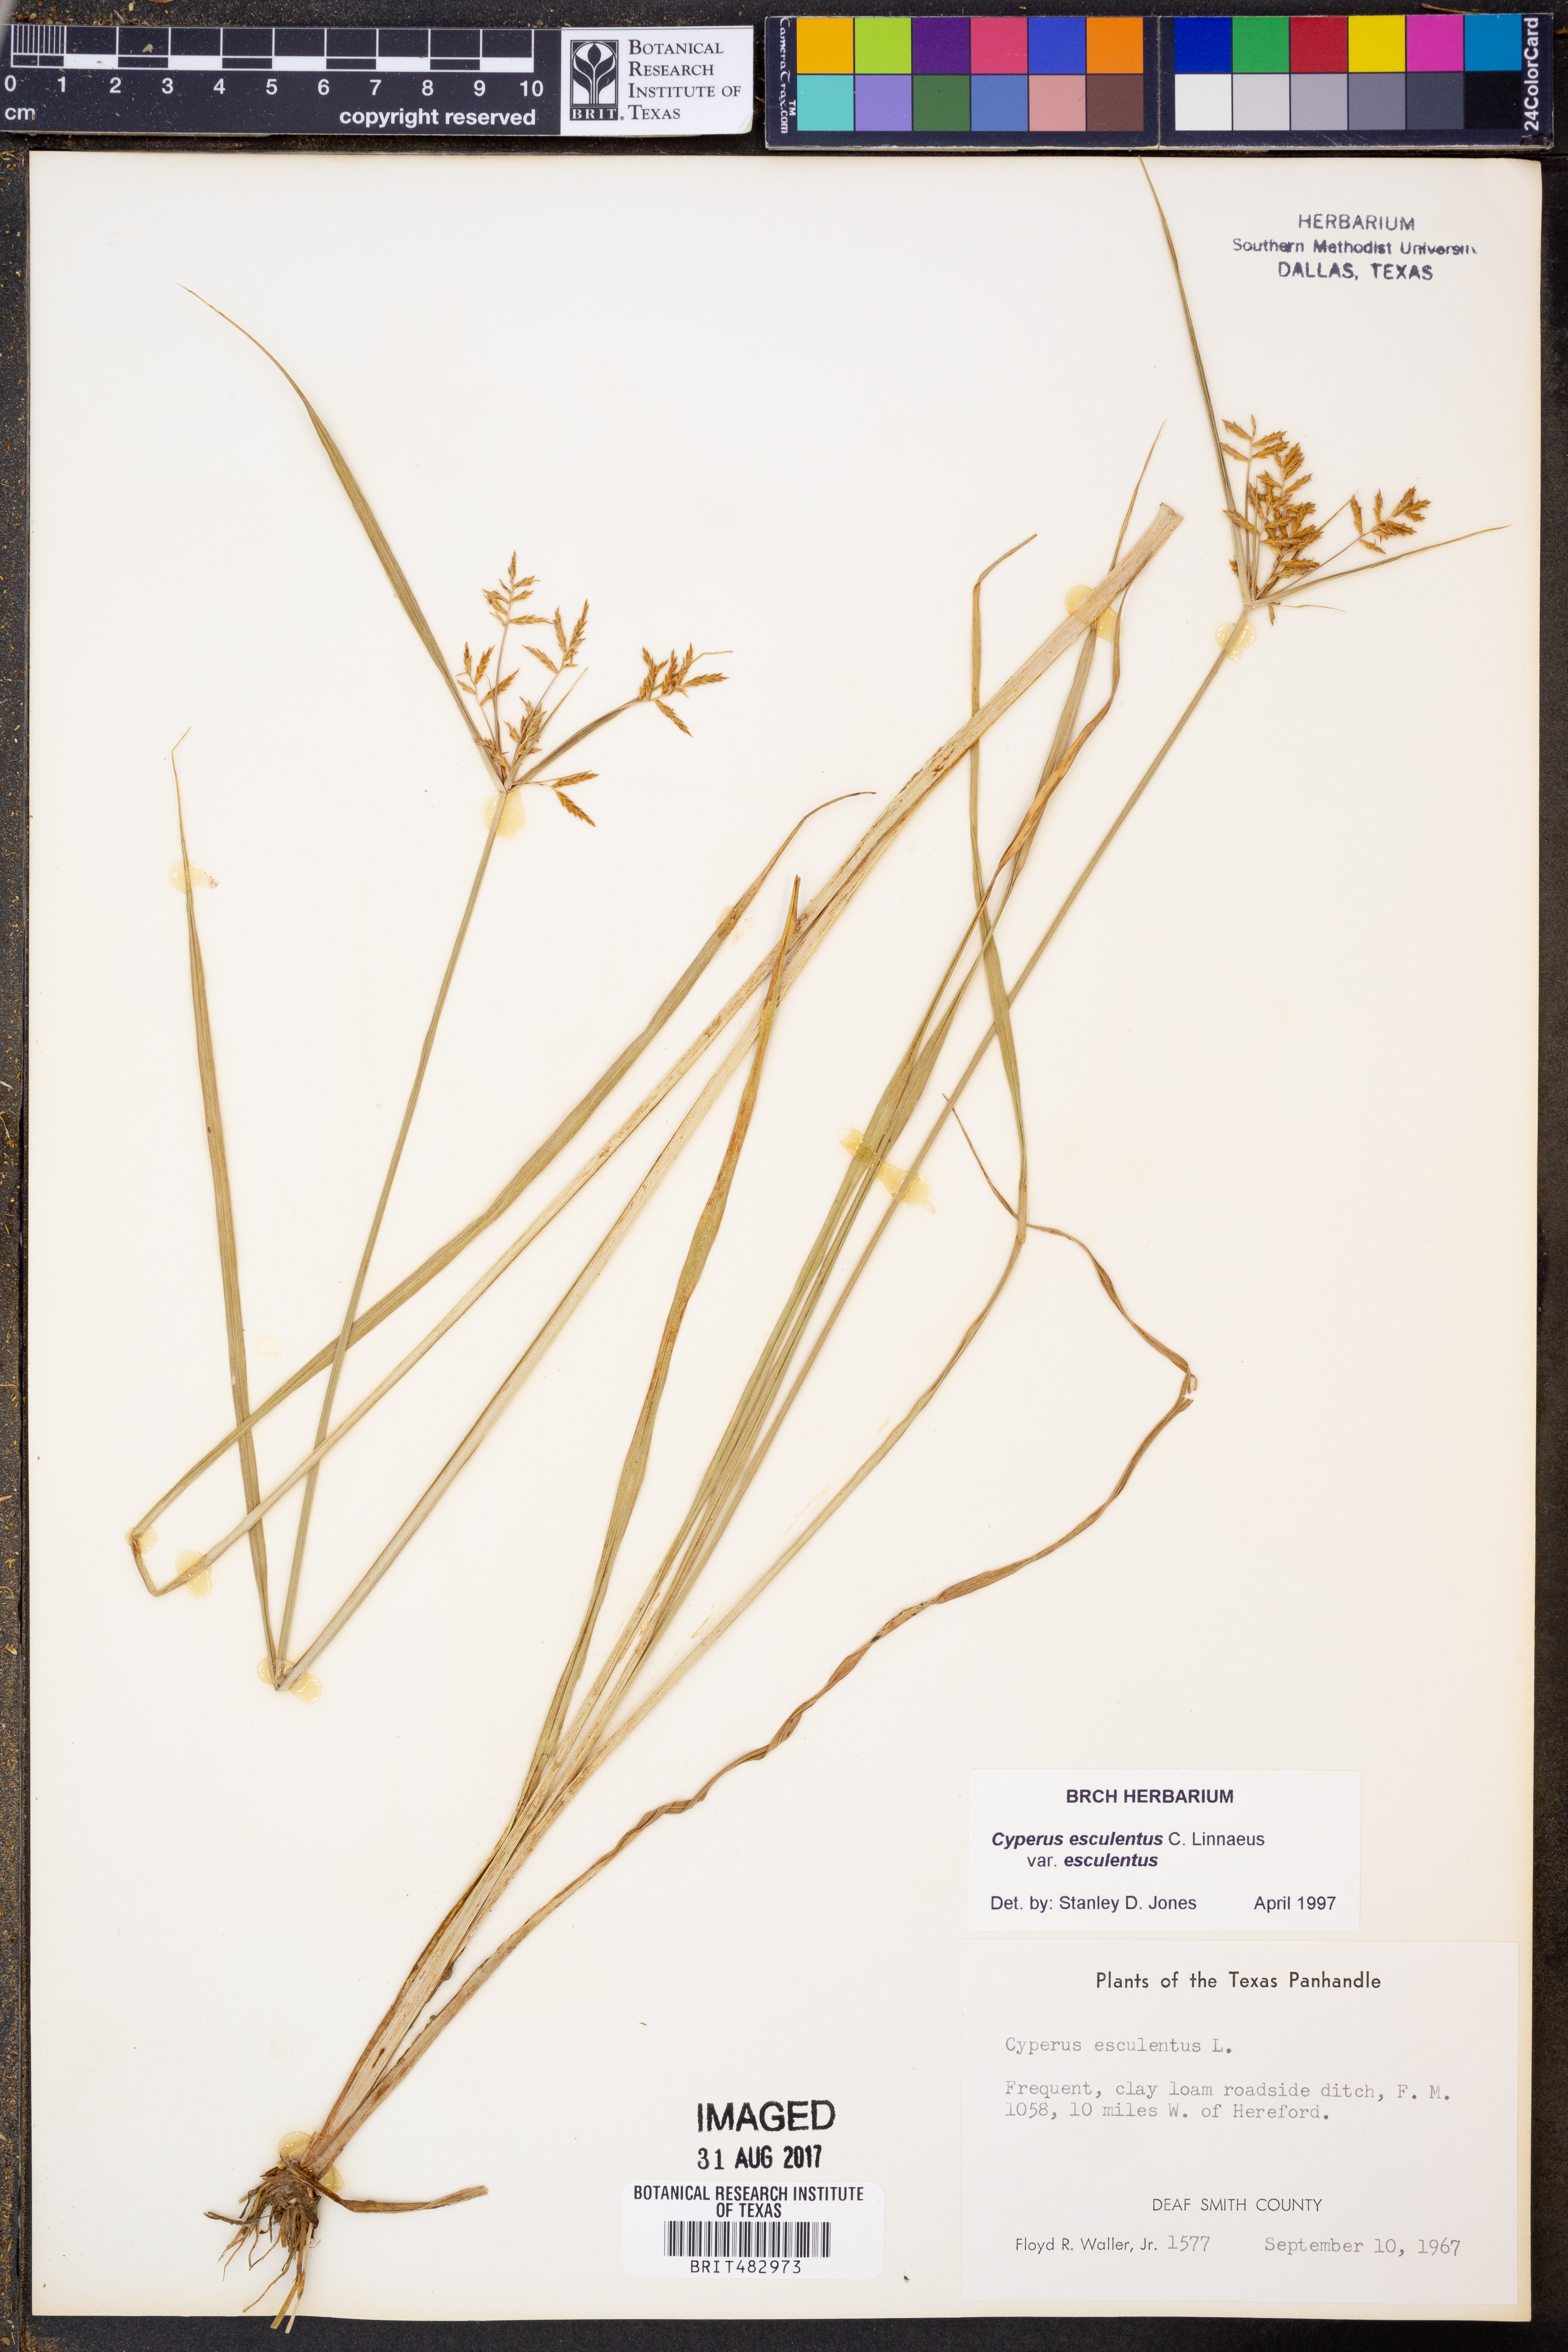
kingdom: Plantae
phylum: Tracheophyta
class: Liliopsida
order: Poales
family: Cyperaceae
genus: Cyperus
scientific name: Cyperus esculentus
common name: Yellow nutsedge
